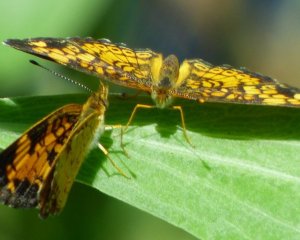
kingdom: Animalia
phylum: Arthropoda
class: Insecta
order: Lepidoptera
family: Nymphalidae
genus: Phyciodes
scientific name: Phyciodes tharos
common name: Pearl Crescent
